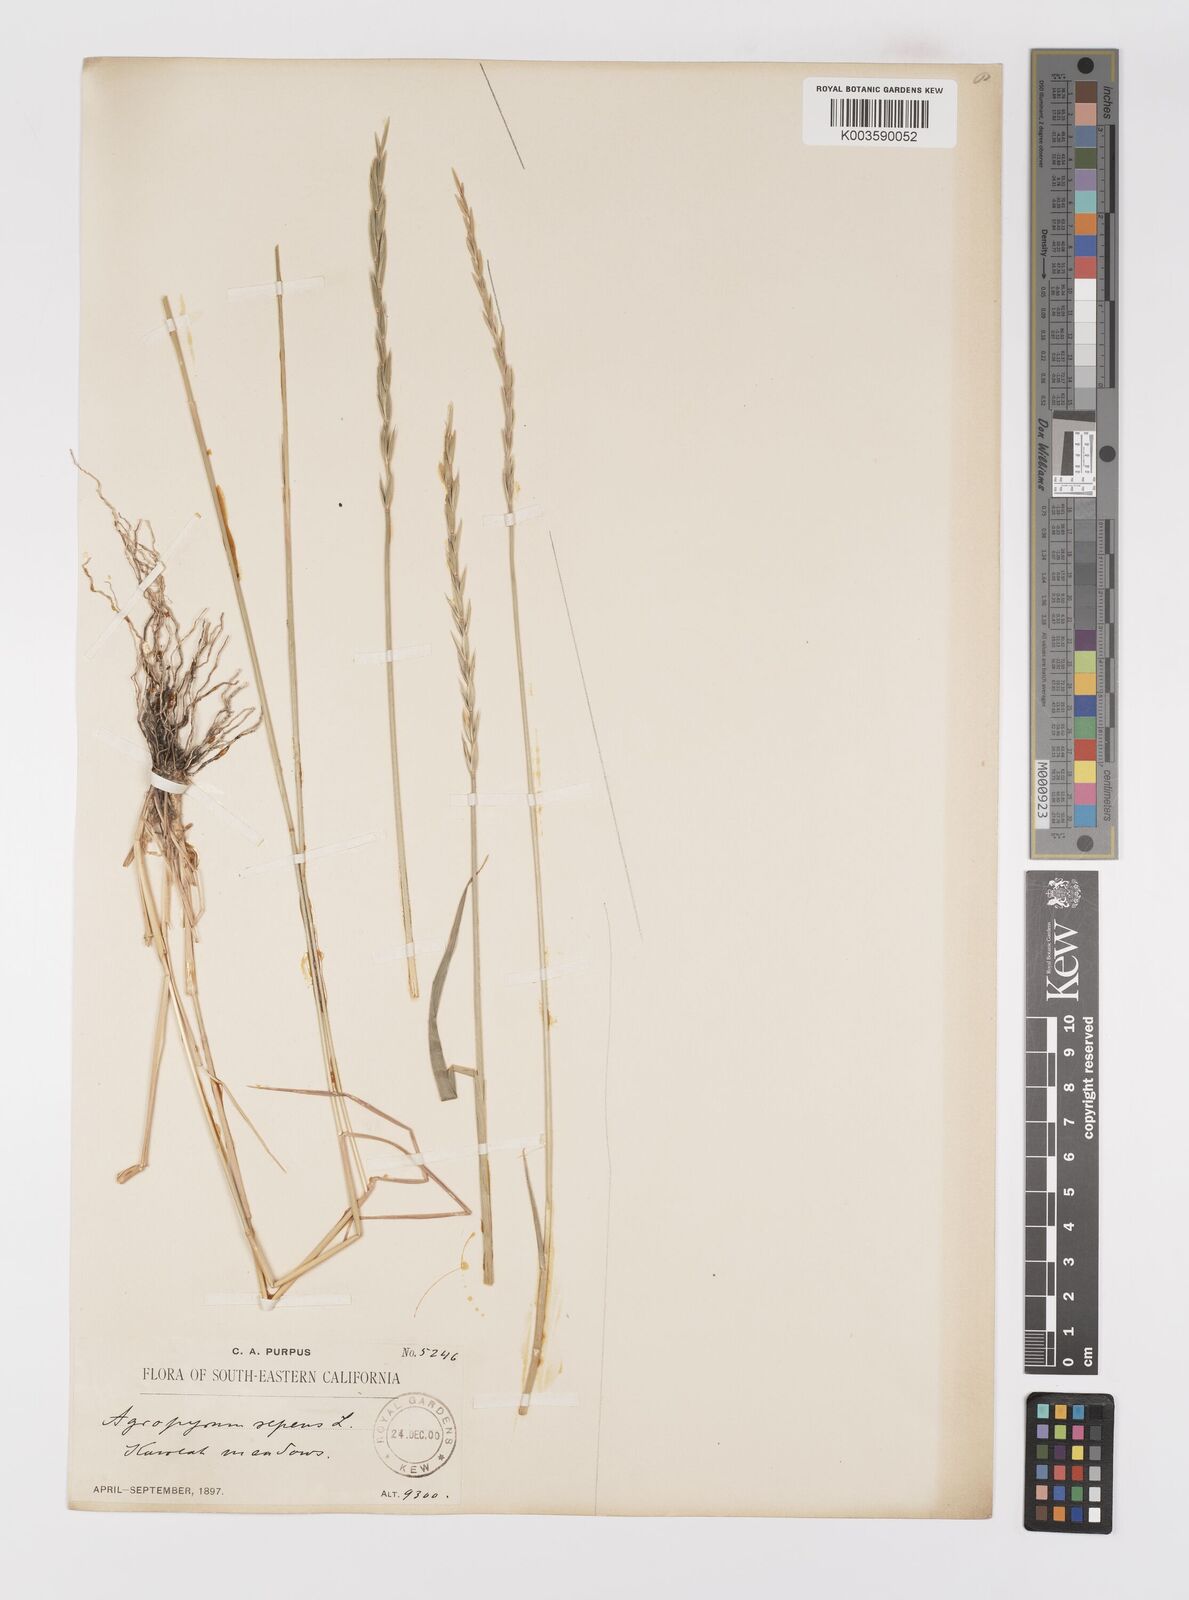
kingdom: Plantae
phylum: Tracheophyta
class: Liliopsida
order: Poales
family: Poaceae
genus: Elymus
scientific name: Elymus repens
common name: Quackgrass
